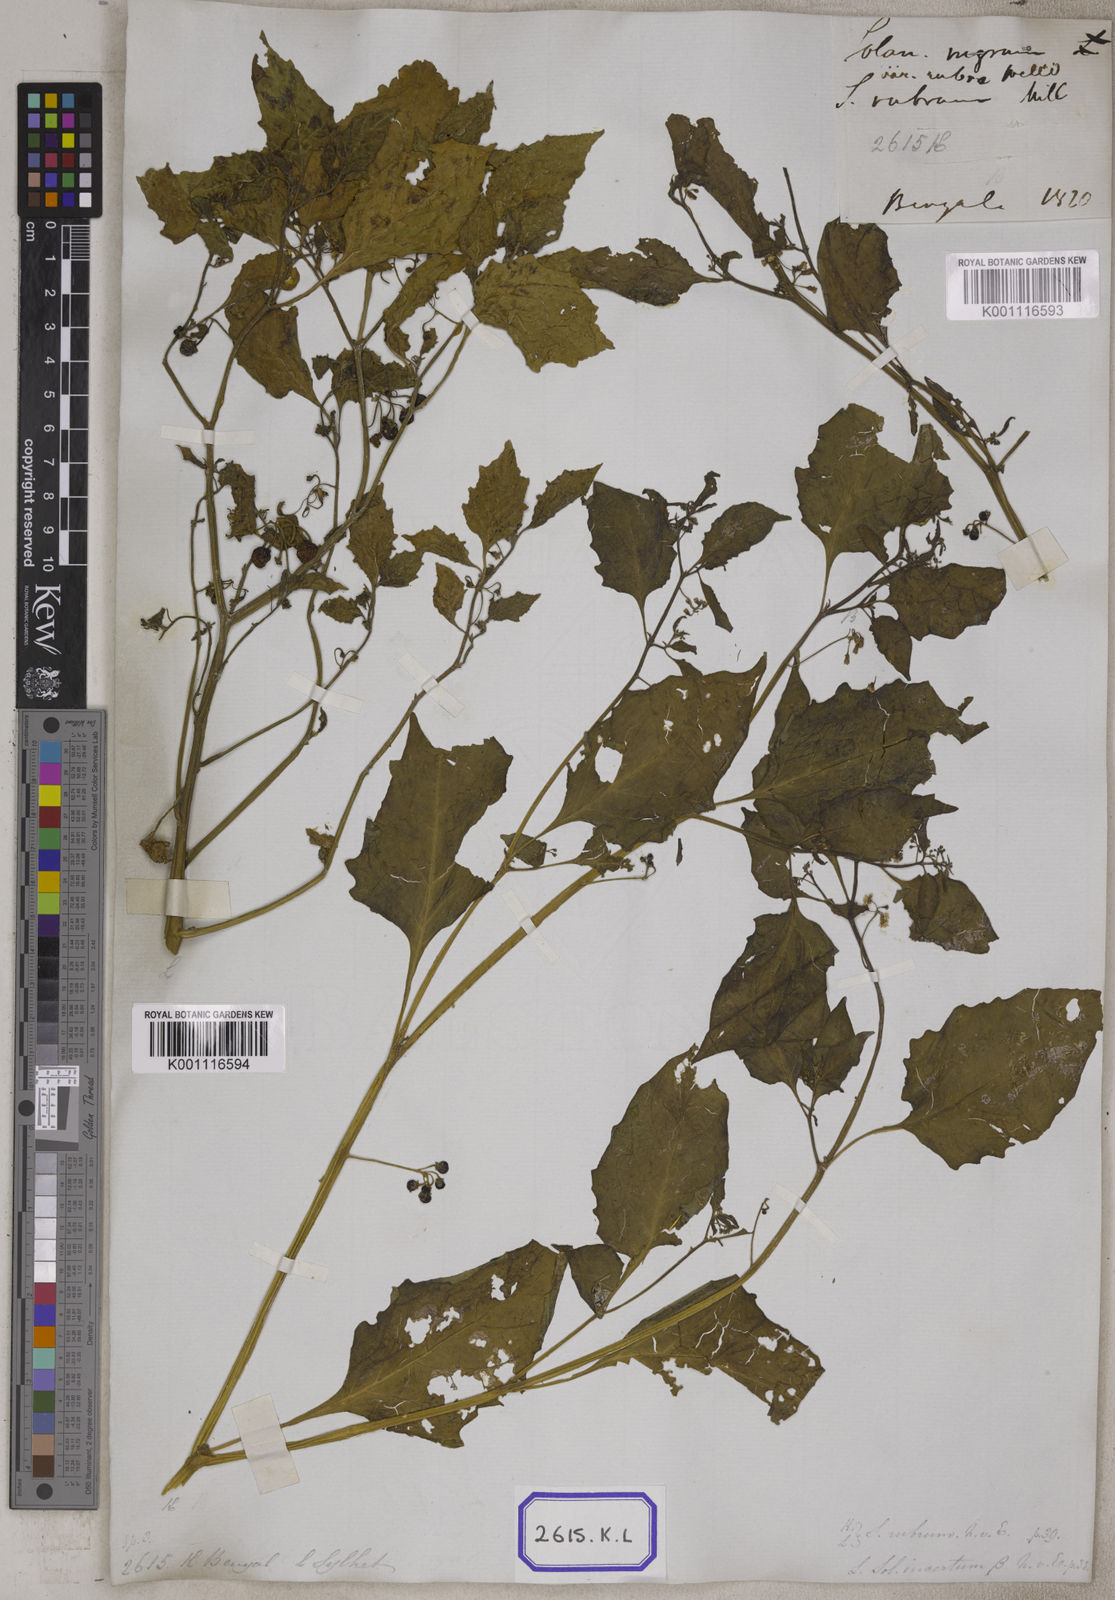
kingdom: Plantae
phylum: Tracheophyta
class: Magnoliopsida
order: Solanales
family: Solanaceae
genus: Solanum
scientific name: Solanum nigrum
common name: Black nightshade
